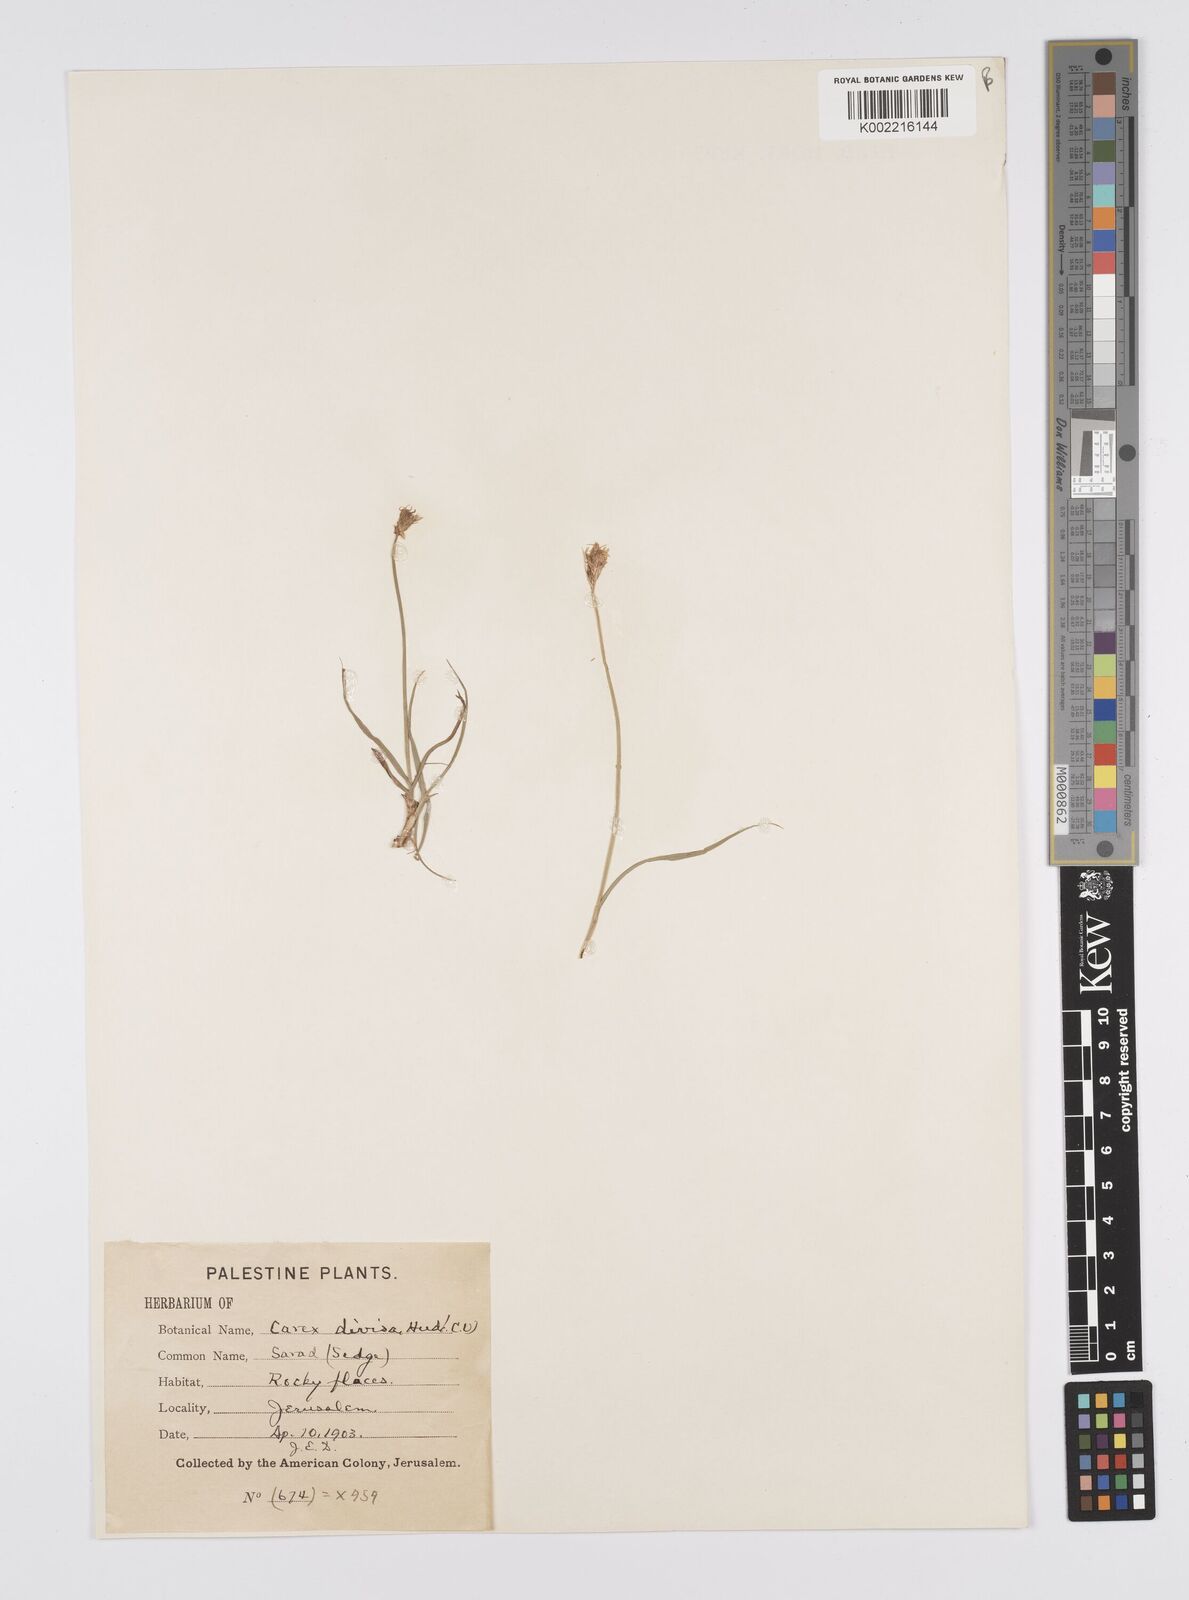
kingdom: Plantae
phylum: Tracheophyta
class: Liliopsida
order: Poales
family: Cyperaceae
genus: Carex
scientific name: Carex divisa
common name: Divided sedge
